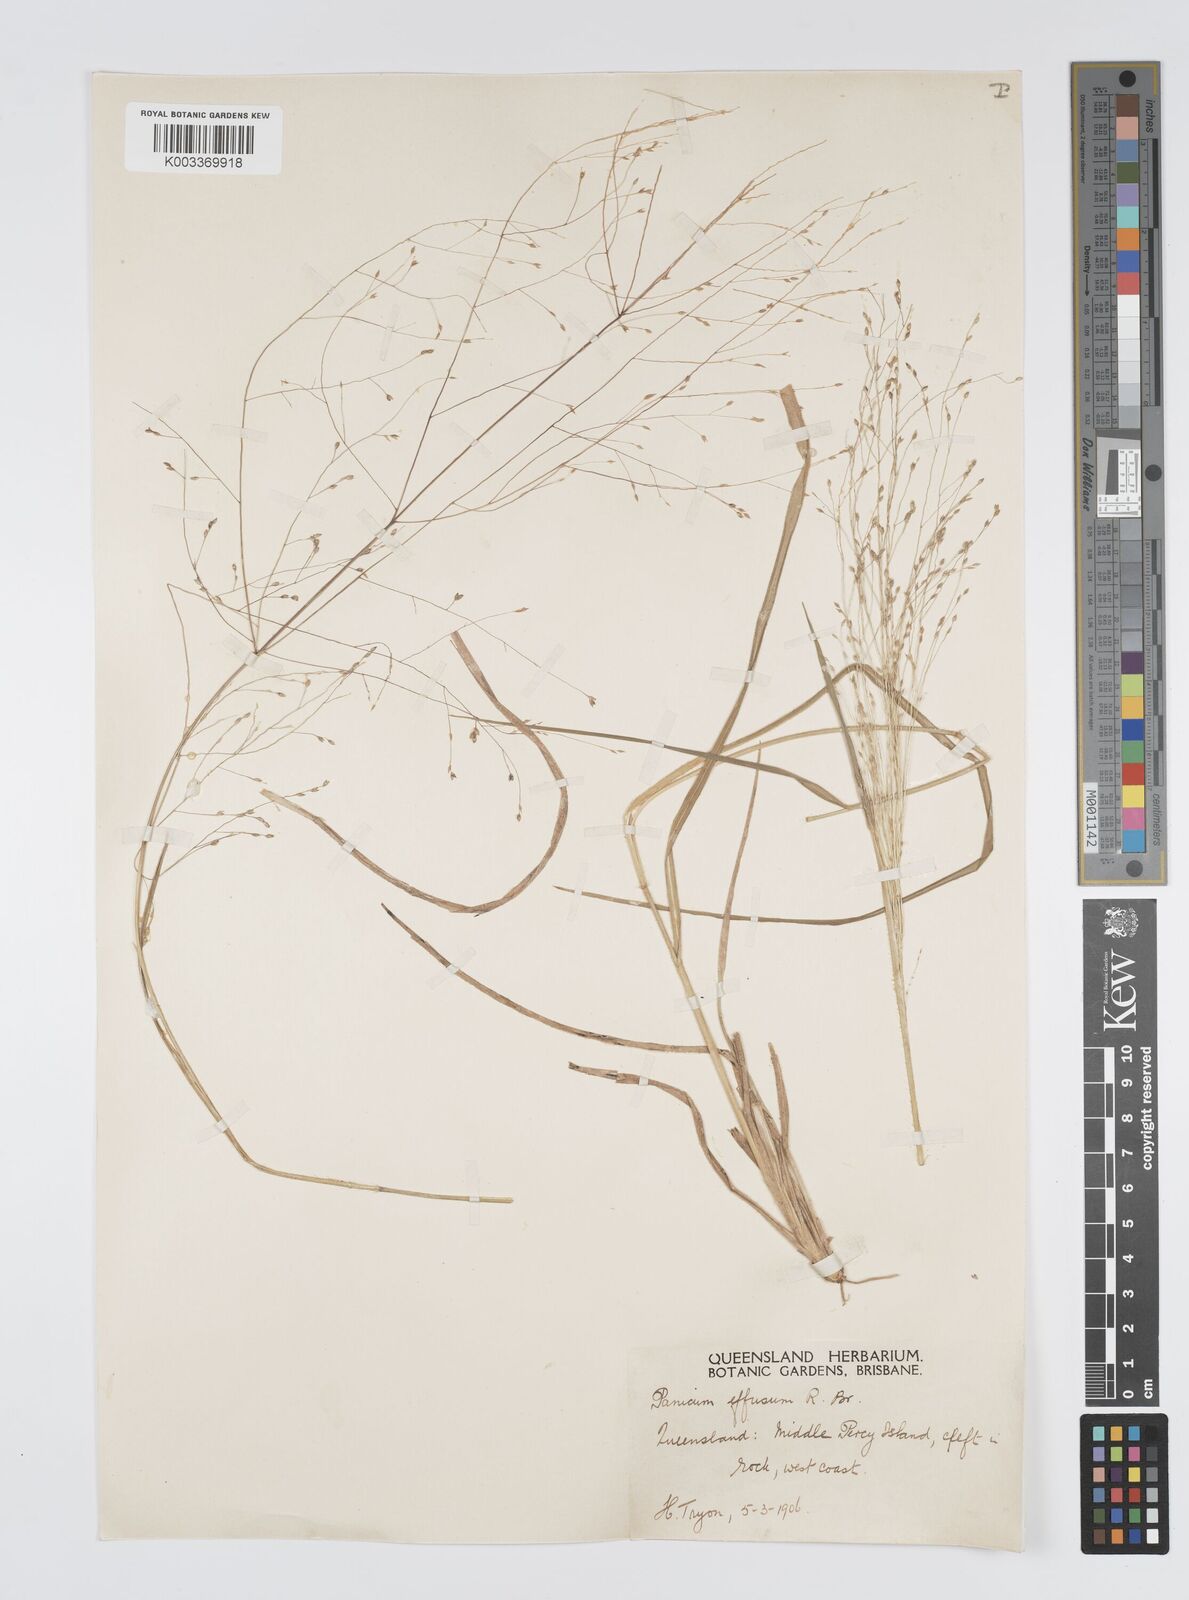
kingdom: Plantae
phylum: Tracheophyta
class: Liliopsida
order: Poales
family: Poaceae
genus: Panicum
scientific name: Panicum effusum
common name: Hairy panic grass
